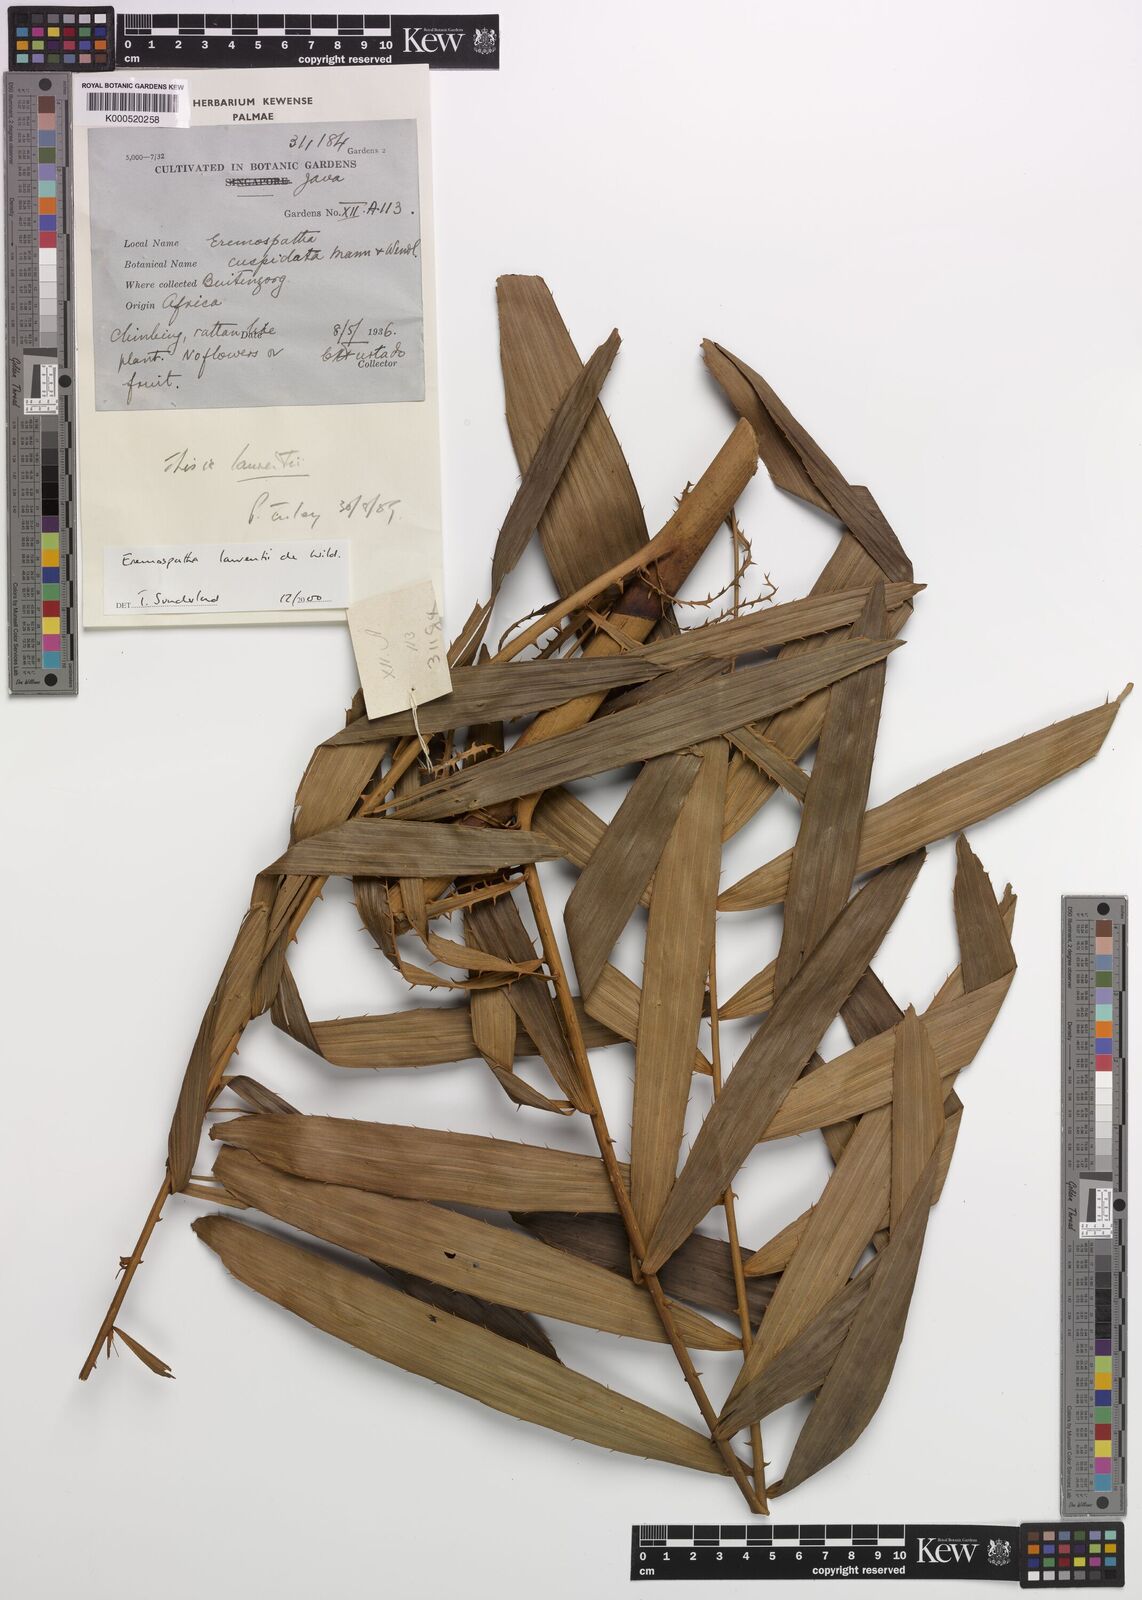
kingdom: Plantae
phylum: Tracheophyta
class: Liliopsida
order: Arecales
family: Arecaceae
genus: Eremospatha
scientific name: Eremospatha laurentii
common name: Rattan palm
